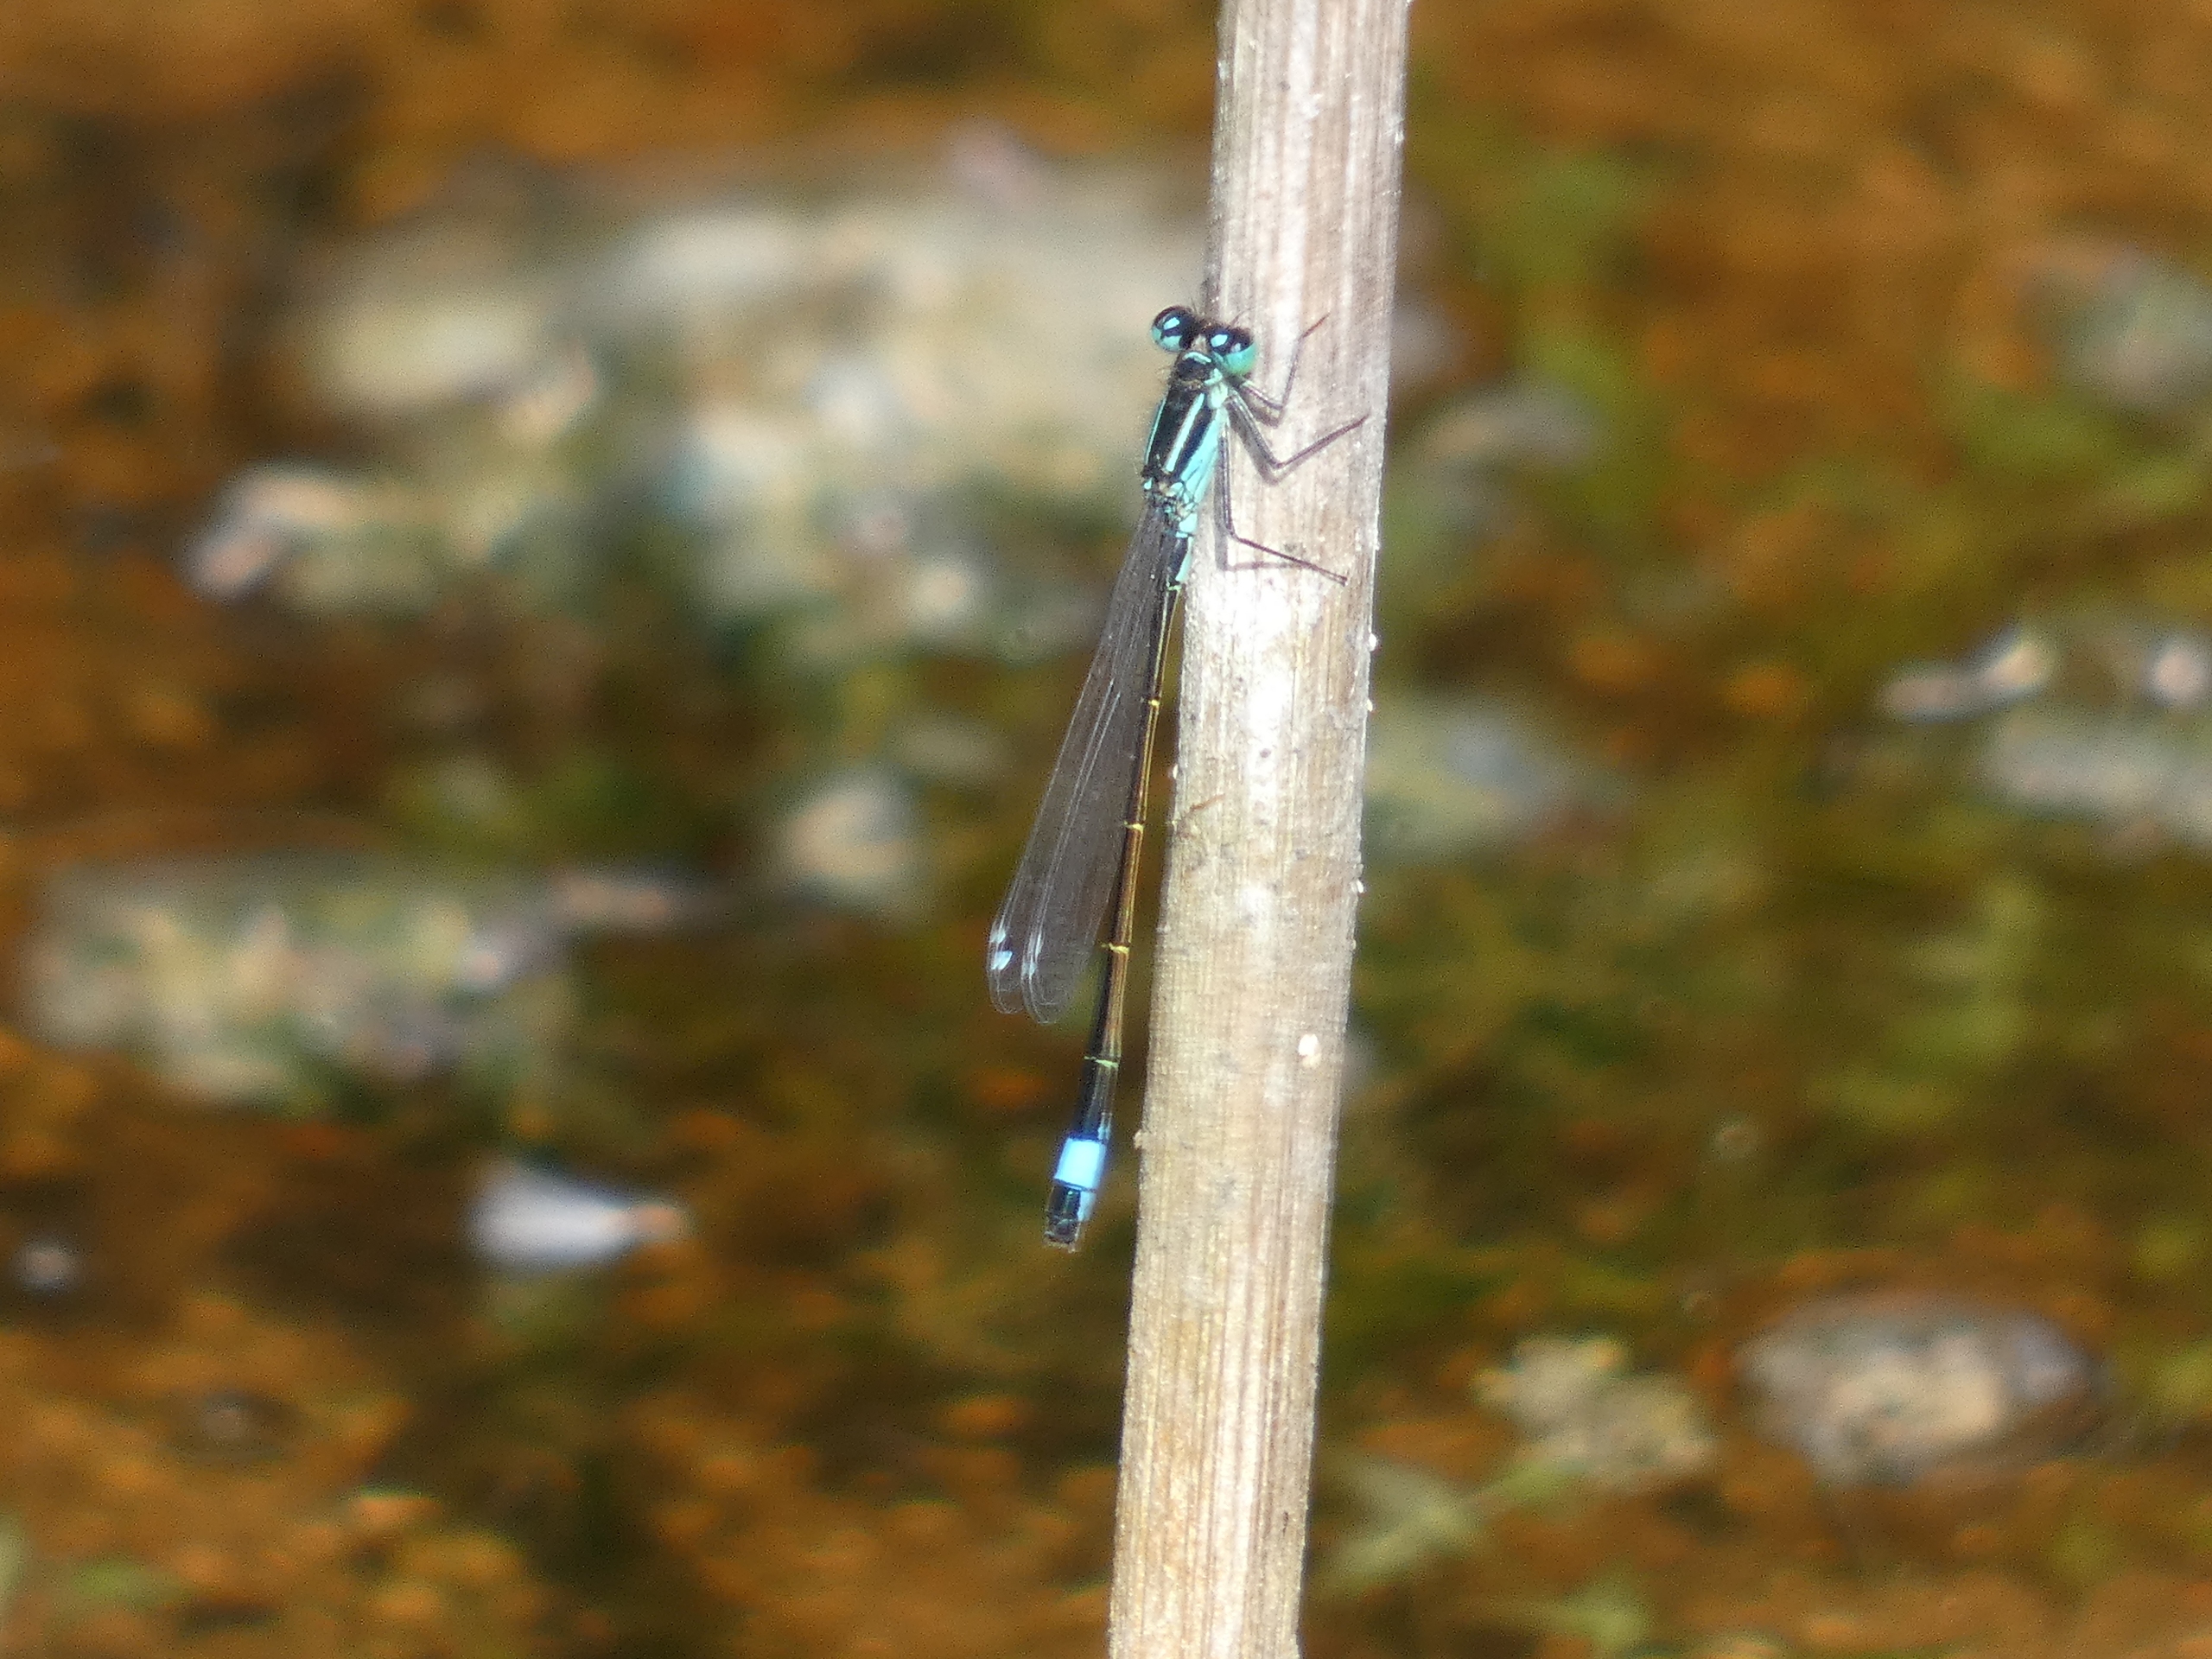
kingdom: Animalia
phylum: Arthropoda
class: Insecta
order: Odonata
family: Coenagrionidae
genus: Ischnura
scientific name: Ischnura elegans
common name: Stor farvevandnymfe
